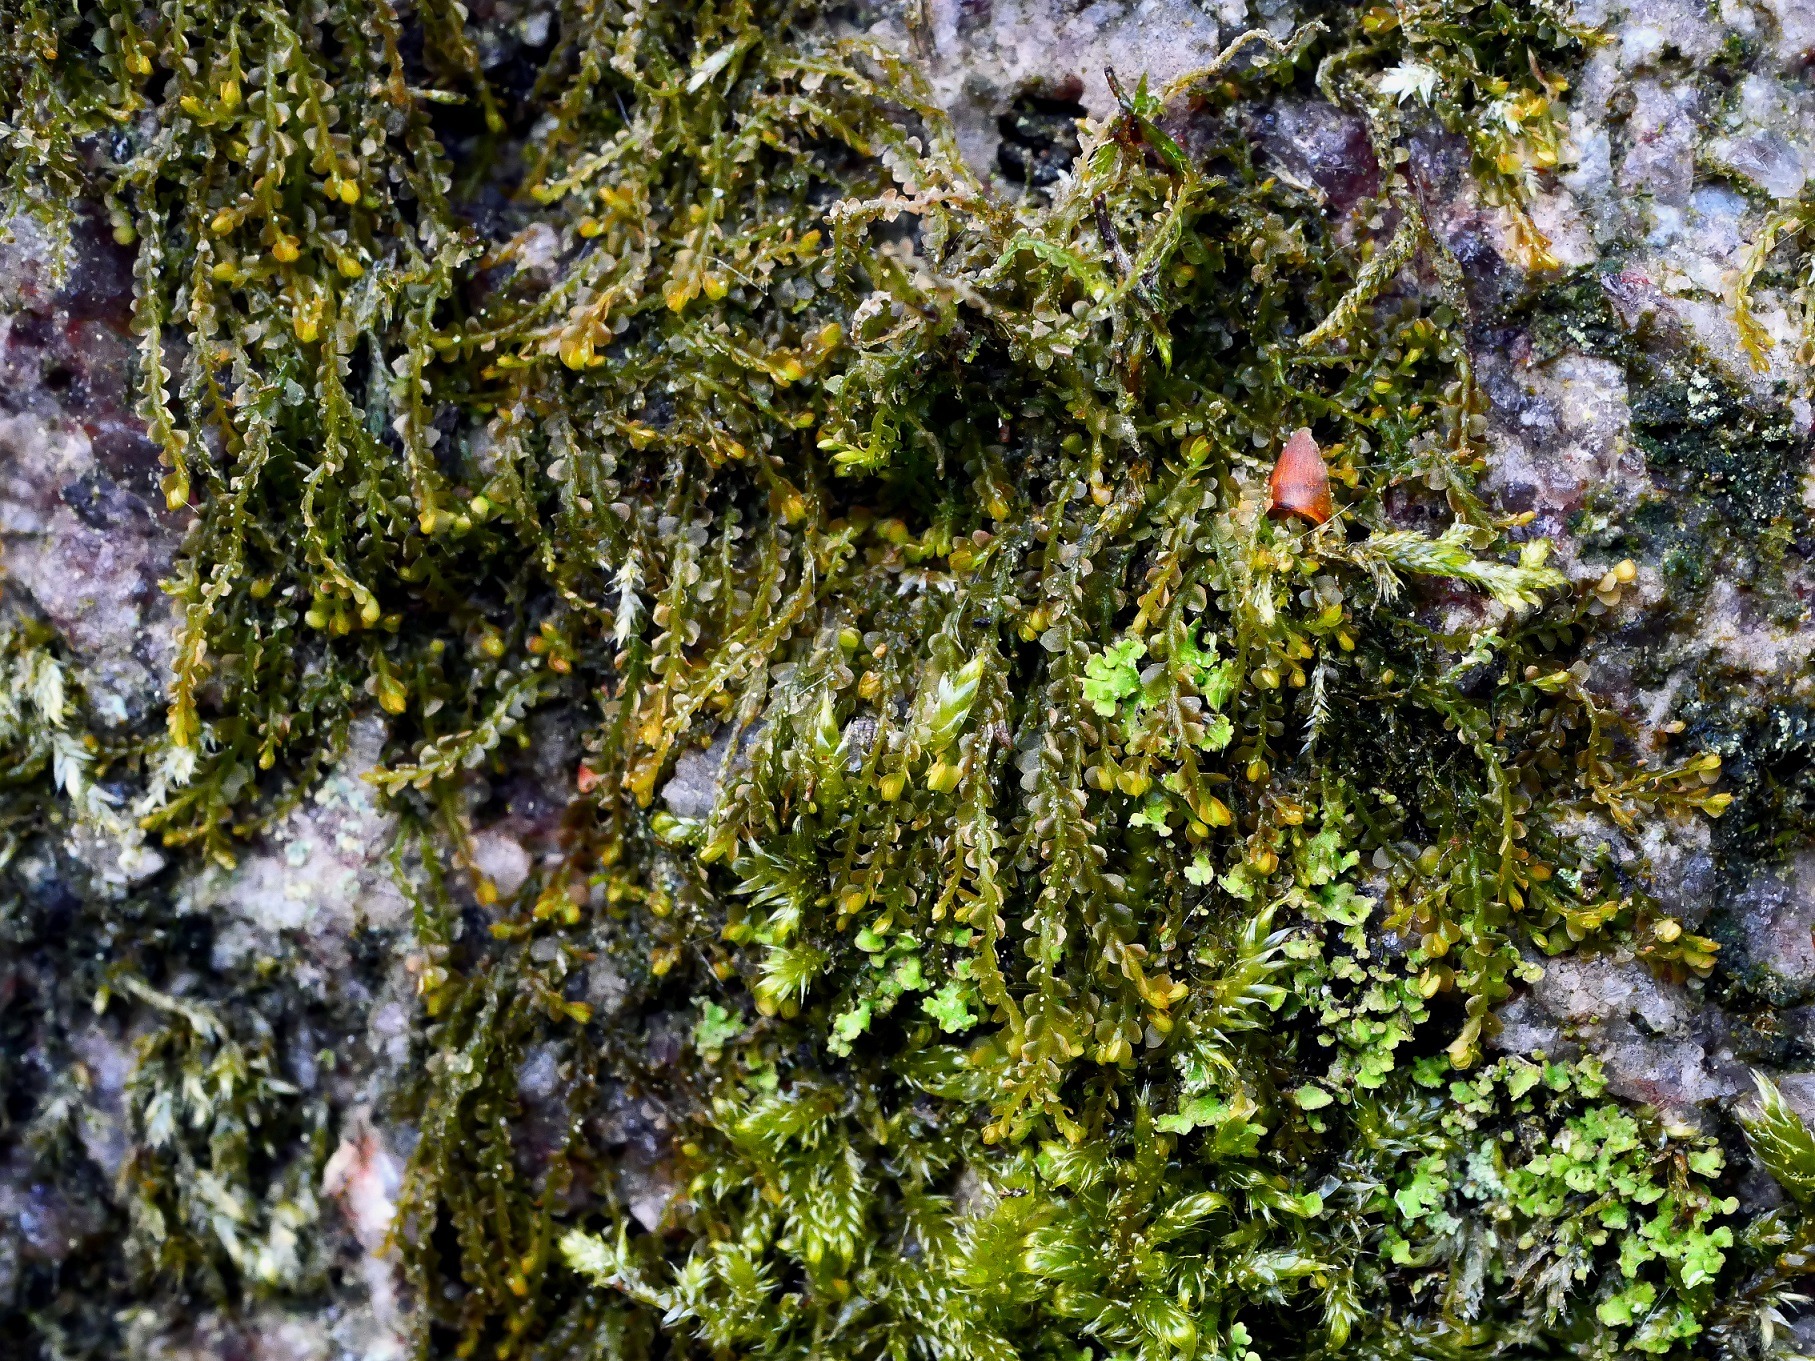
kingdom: Plantae
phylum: Marchantiophyta
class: Jungermanniopsida
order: Jungermanniales
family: Adelanthaceae
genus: Syzygiella
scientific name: Syzygiella autumnalis
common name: Høst-tandsvøb
